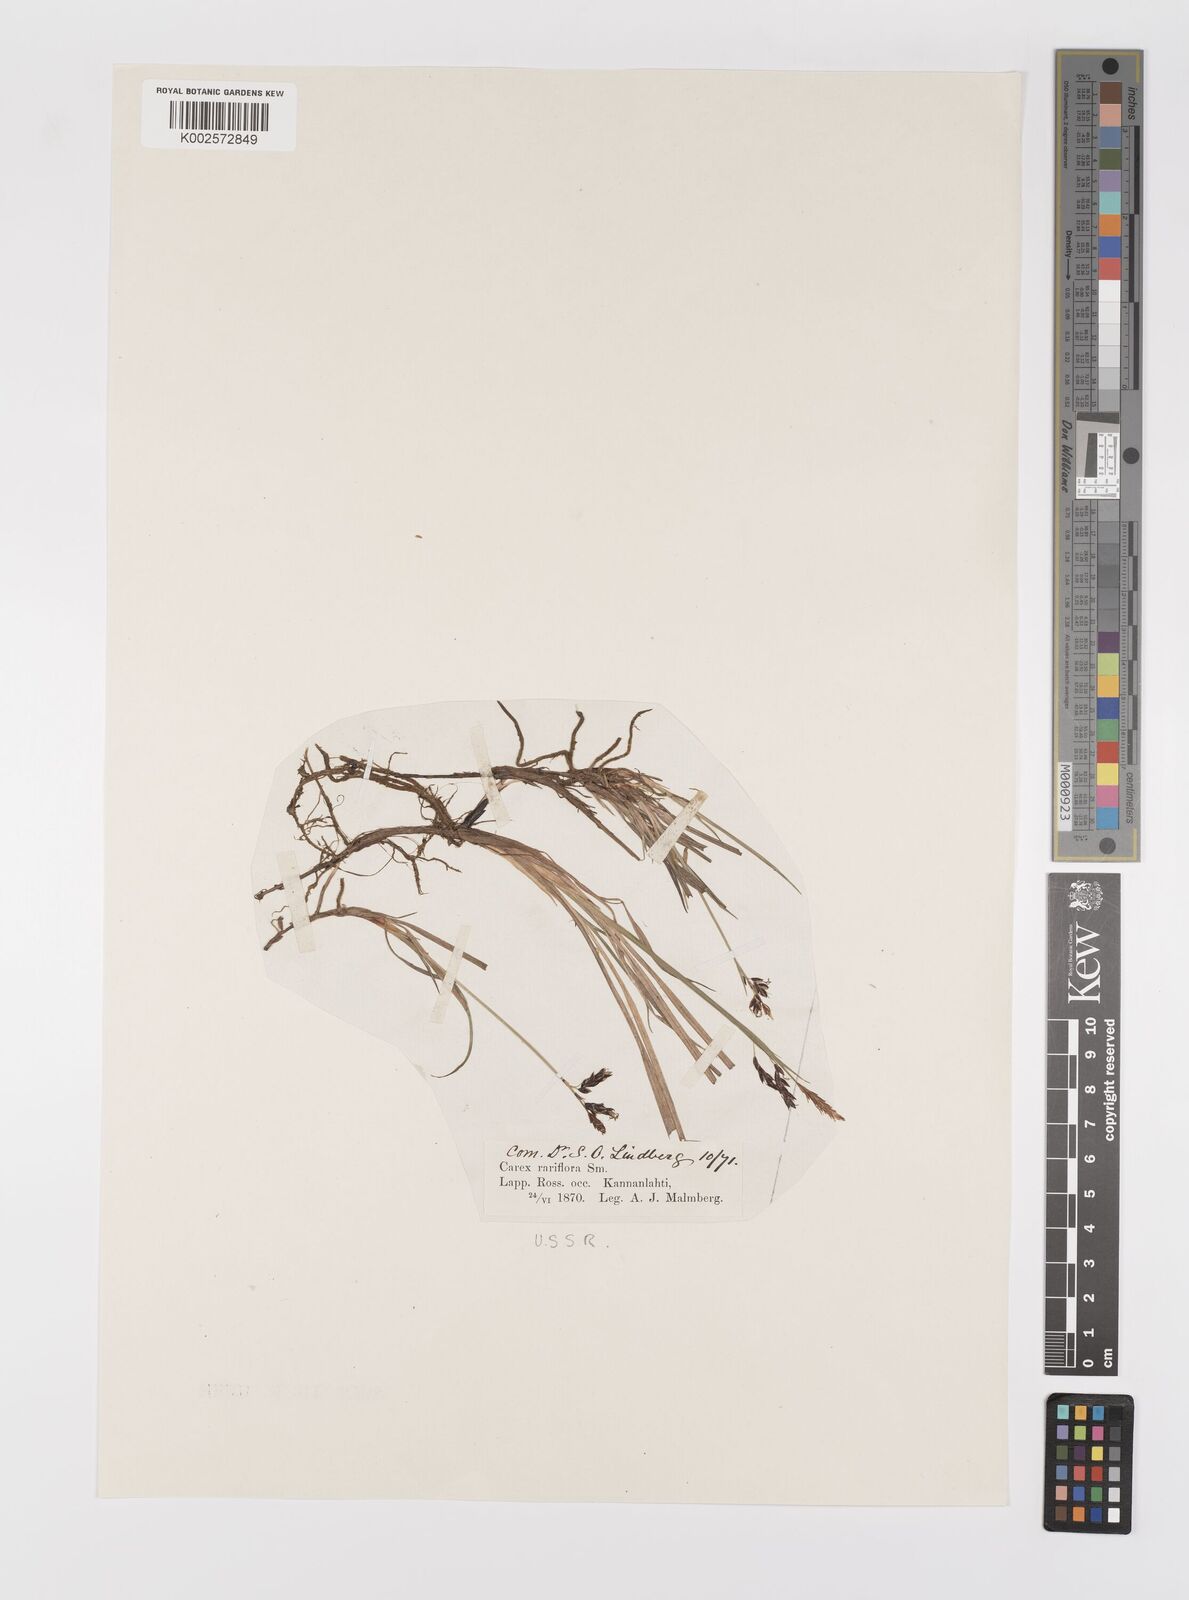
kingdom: Plantae
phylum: Tracheophyta
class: Liliopsida
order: Poales
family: Cyperaceae
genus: Carex
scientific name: Carex rariflora
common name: Loose-flowered alpine sedge
